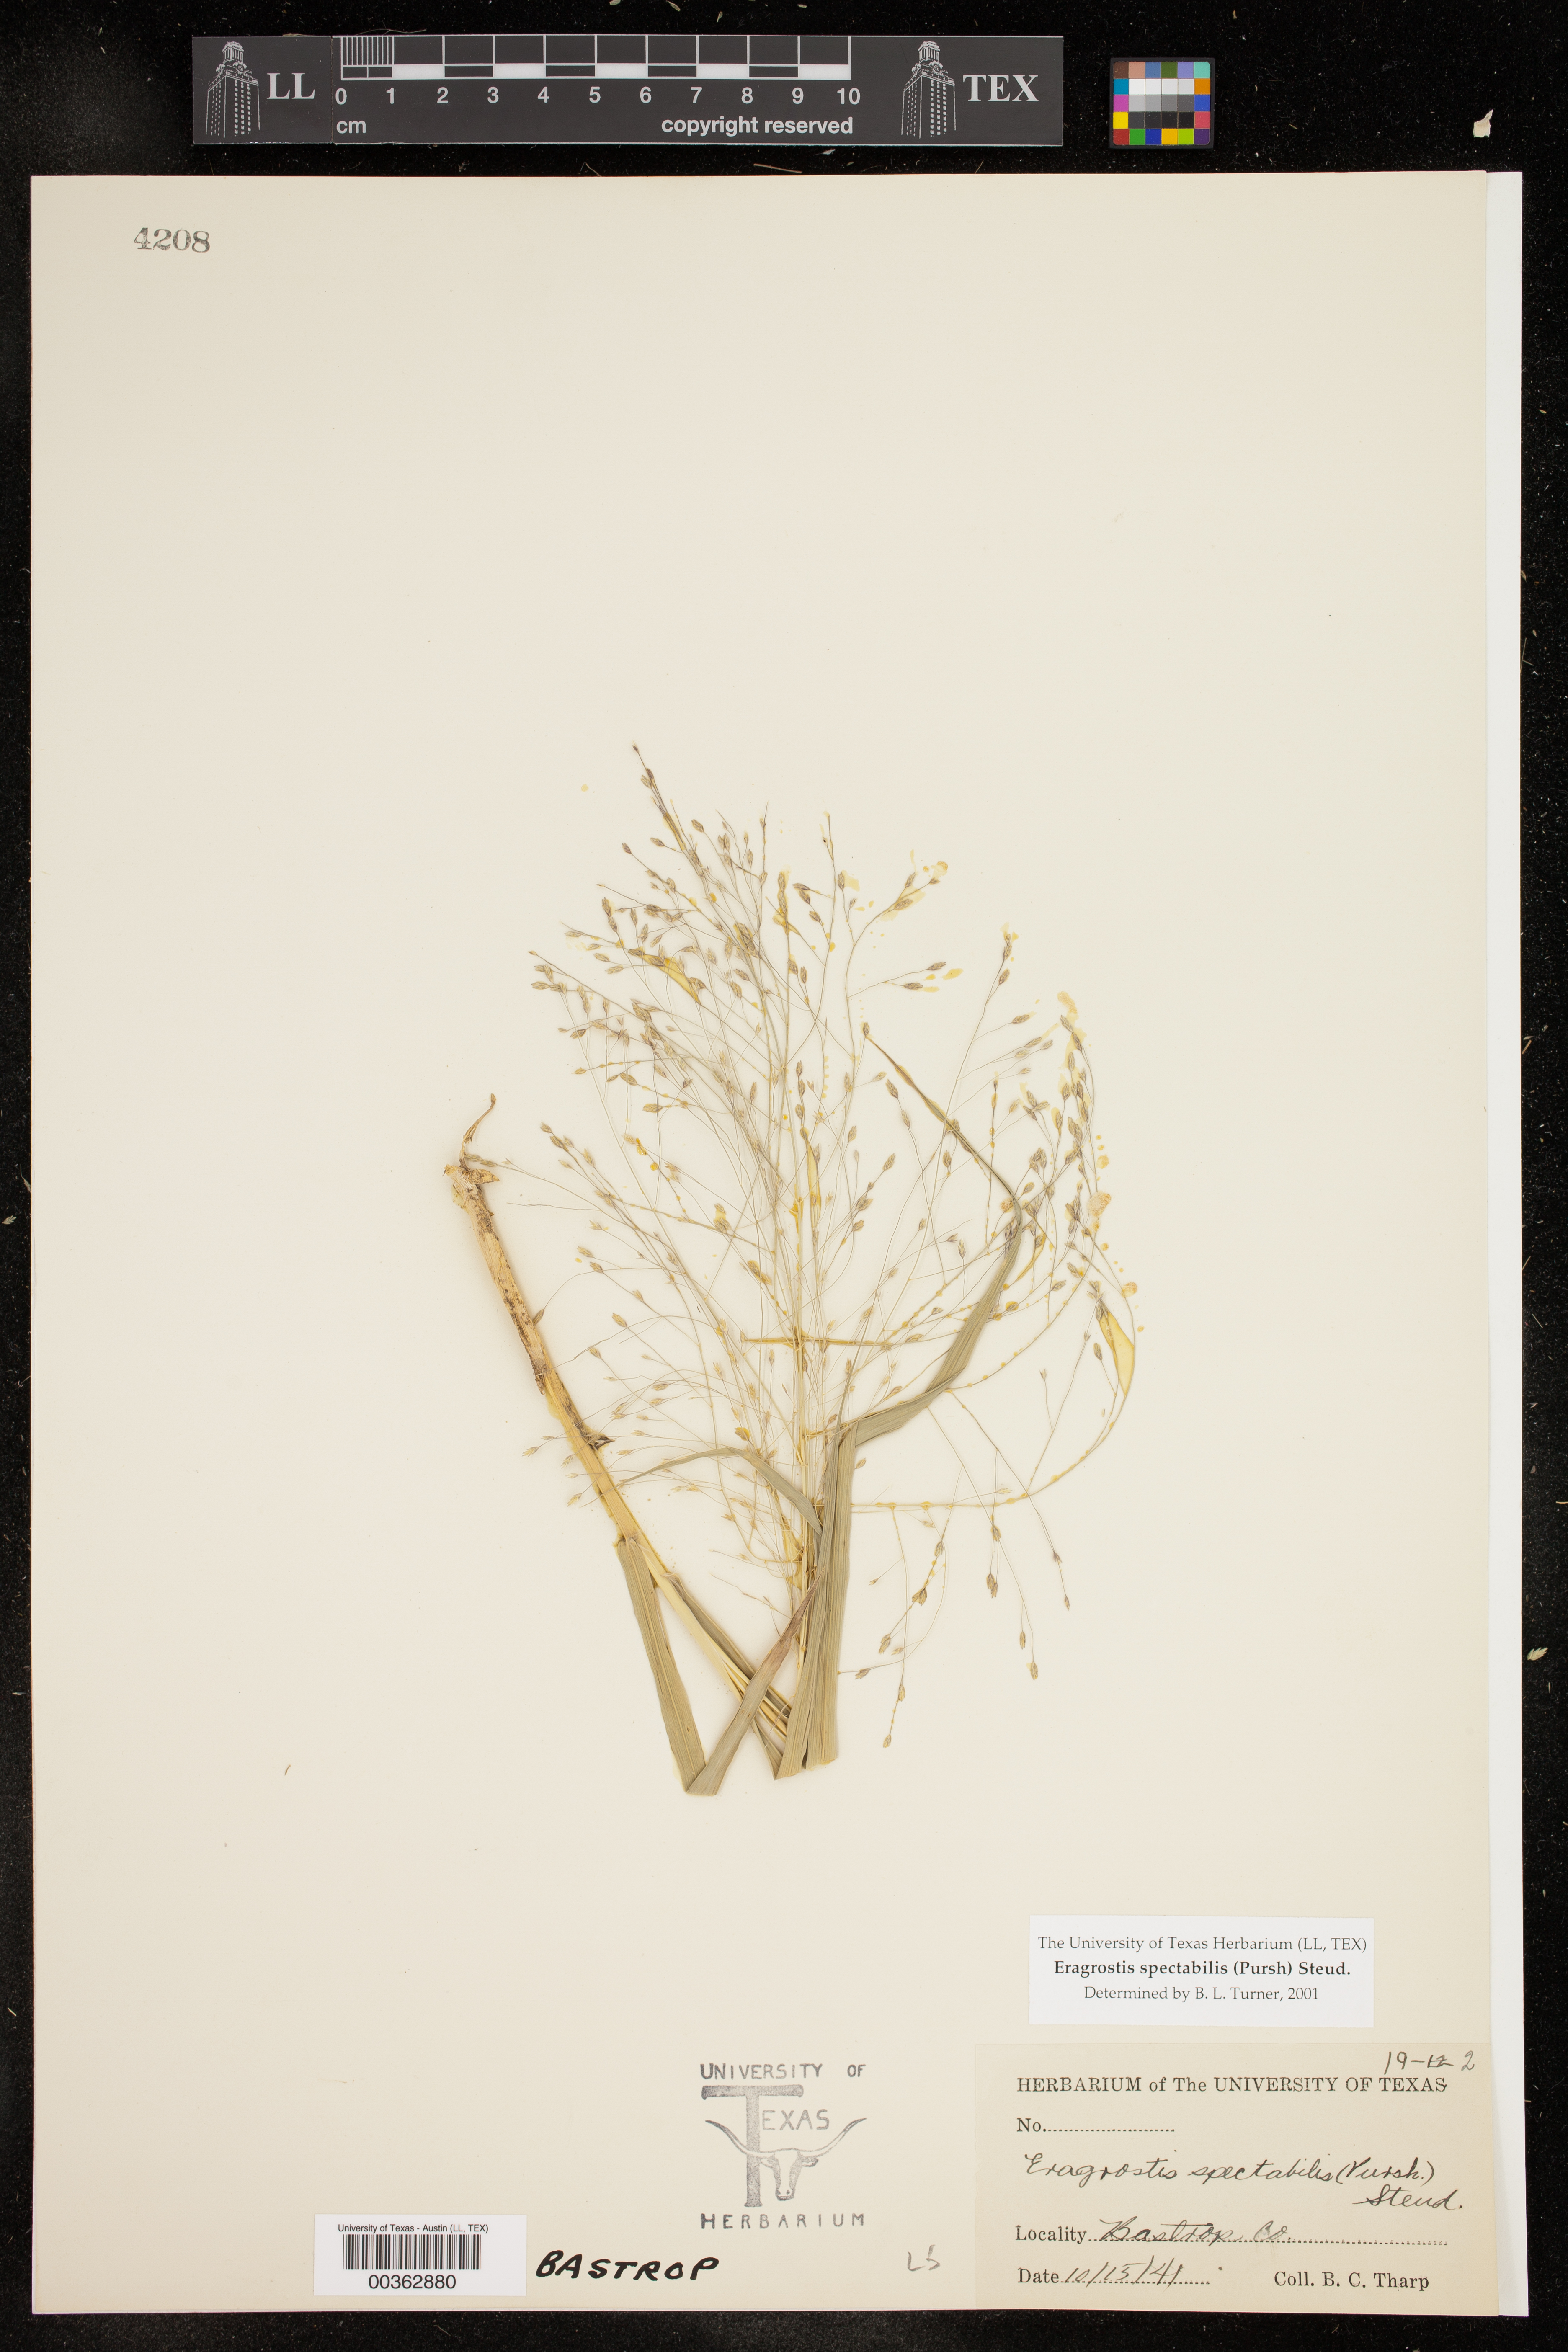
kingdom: Plantae
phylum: Tracheophyta
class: Liliopsida
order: Poales
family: Poaceae
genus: Eragrostis
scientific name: Eragrostis spectabilis
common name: Petticoat-climber
